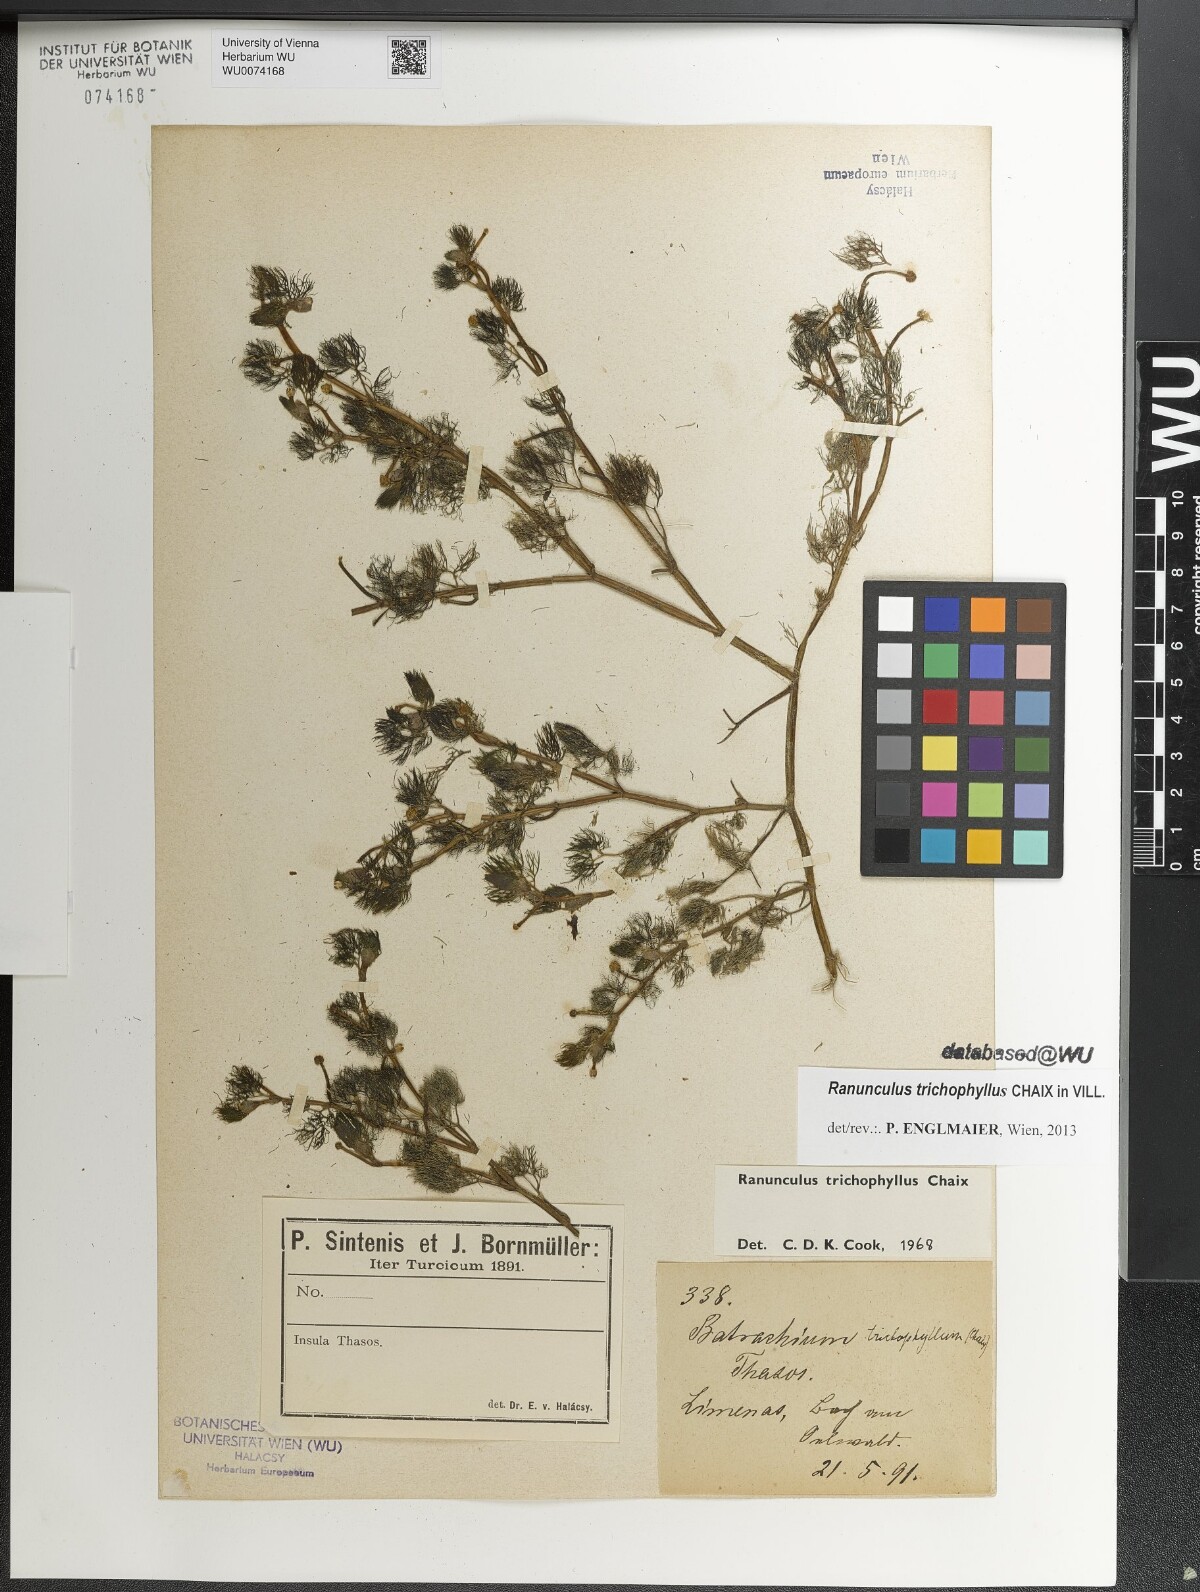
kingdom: Plantae
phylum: Tracheophyta
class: Magnoliopsida
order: Ranunculales
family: Ranunculaceae
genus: Ranunculus
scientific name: Ranunculus trichophyllus
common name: Thread-leaved water-crowfoot
